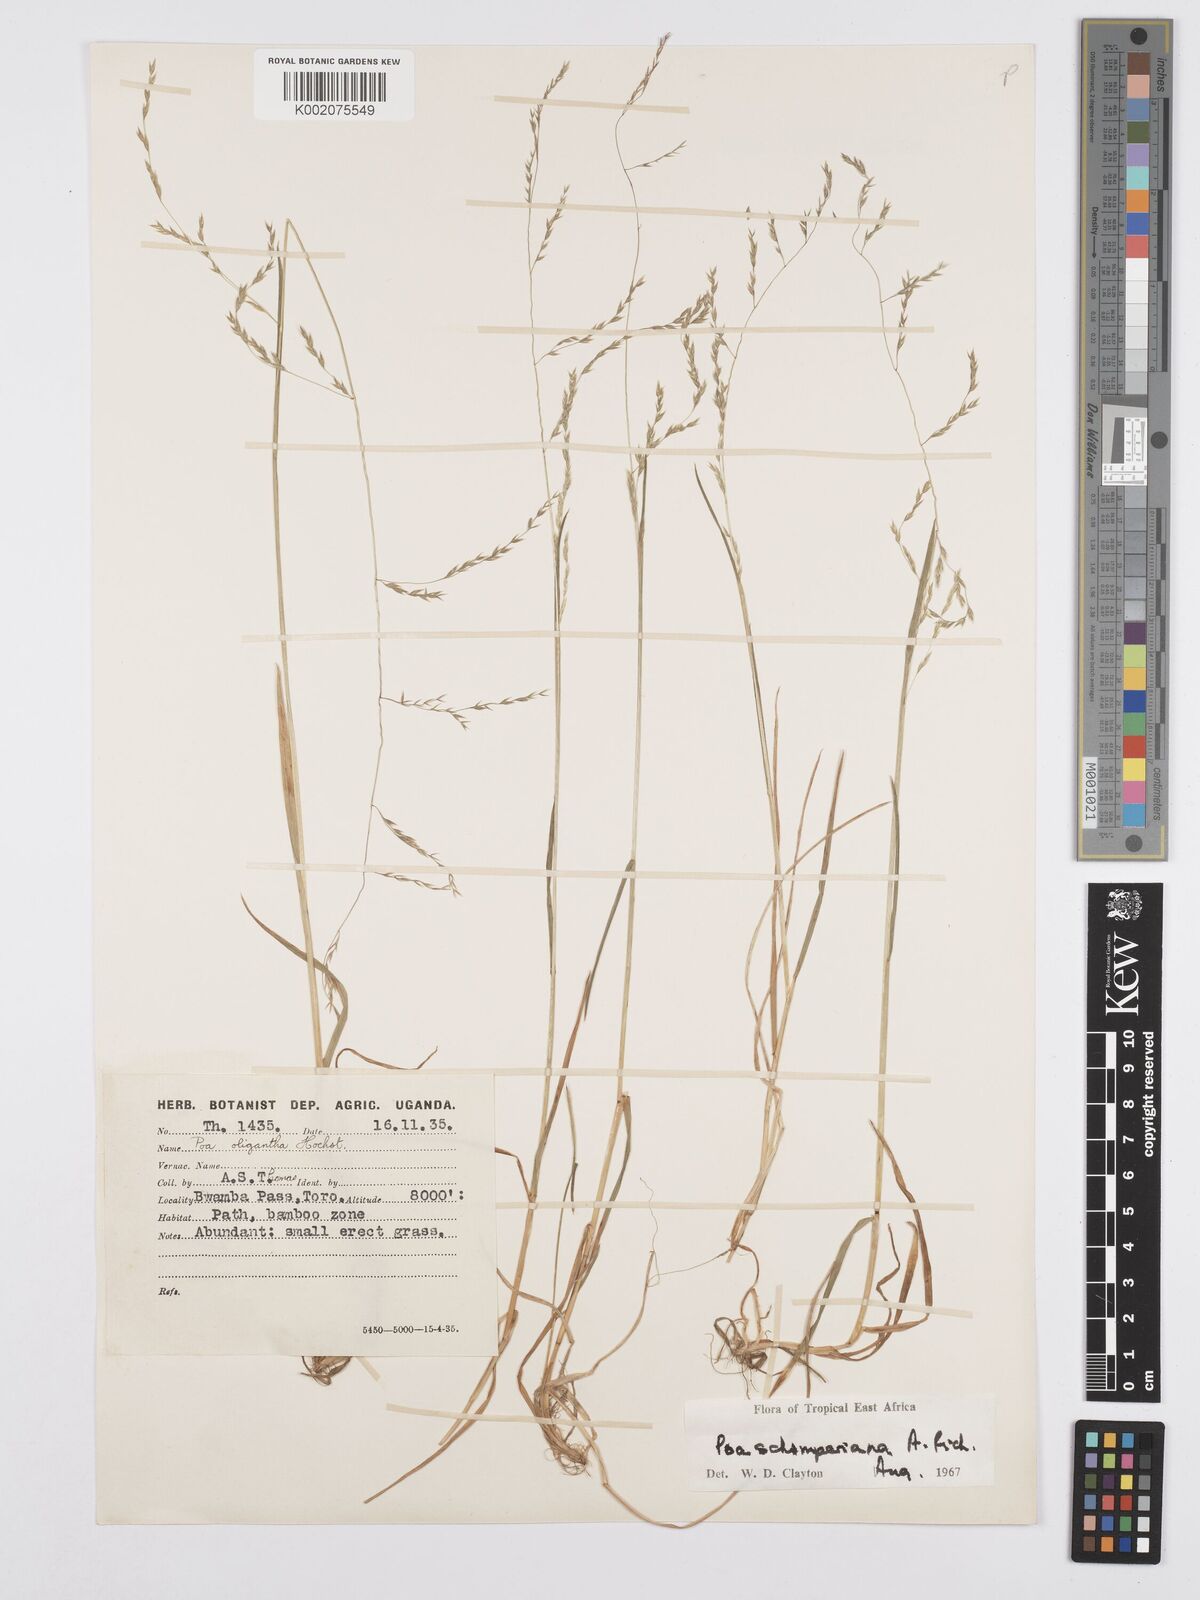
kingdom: Plantae
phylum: Tracheophyta
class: Liliopsida
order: Poales
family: Poaceae
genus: Poa
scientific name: Poa schimperiana
